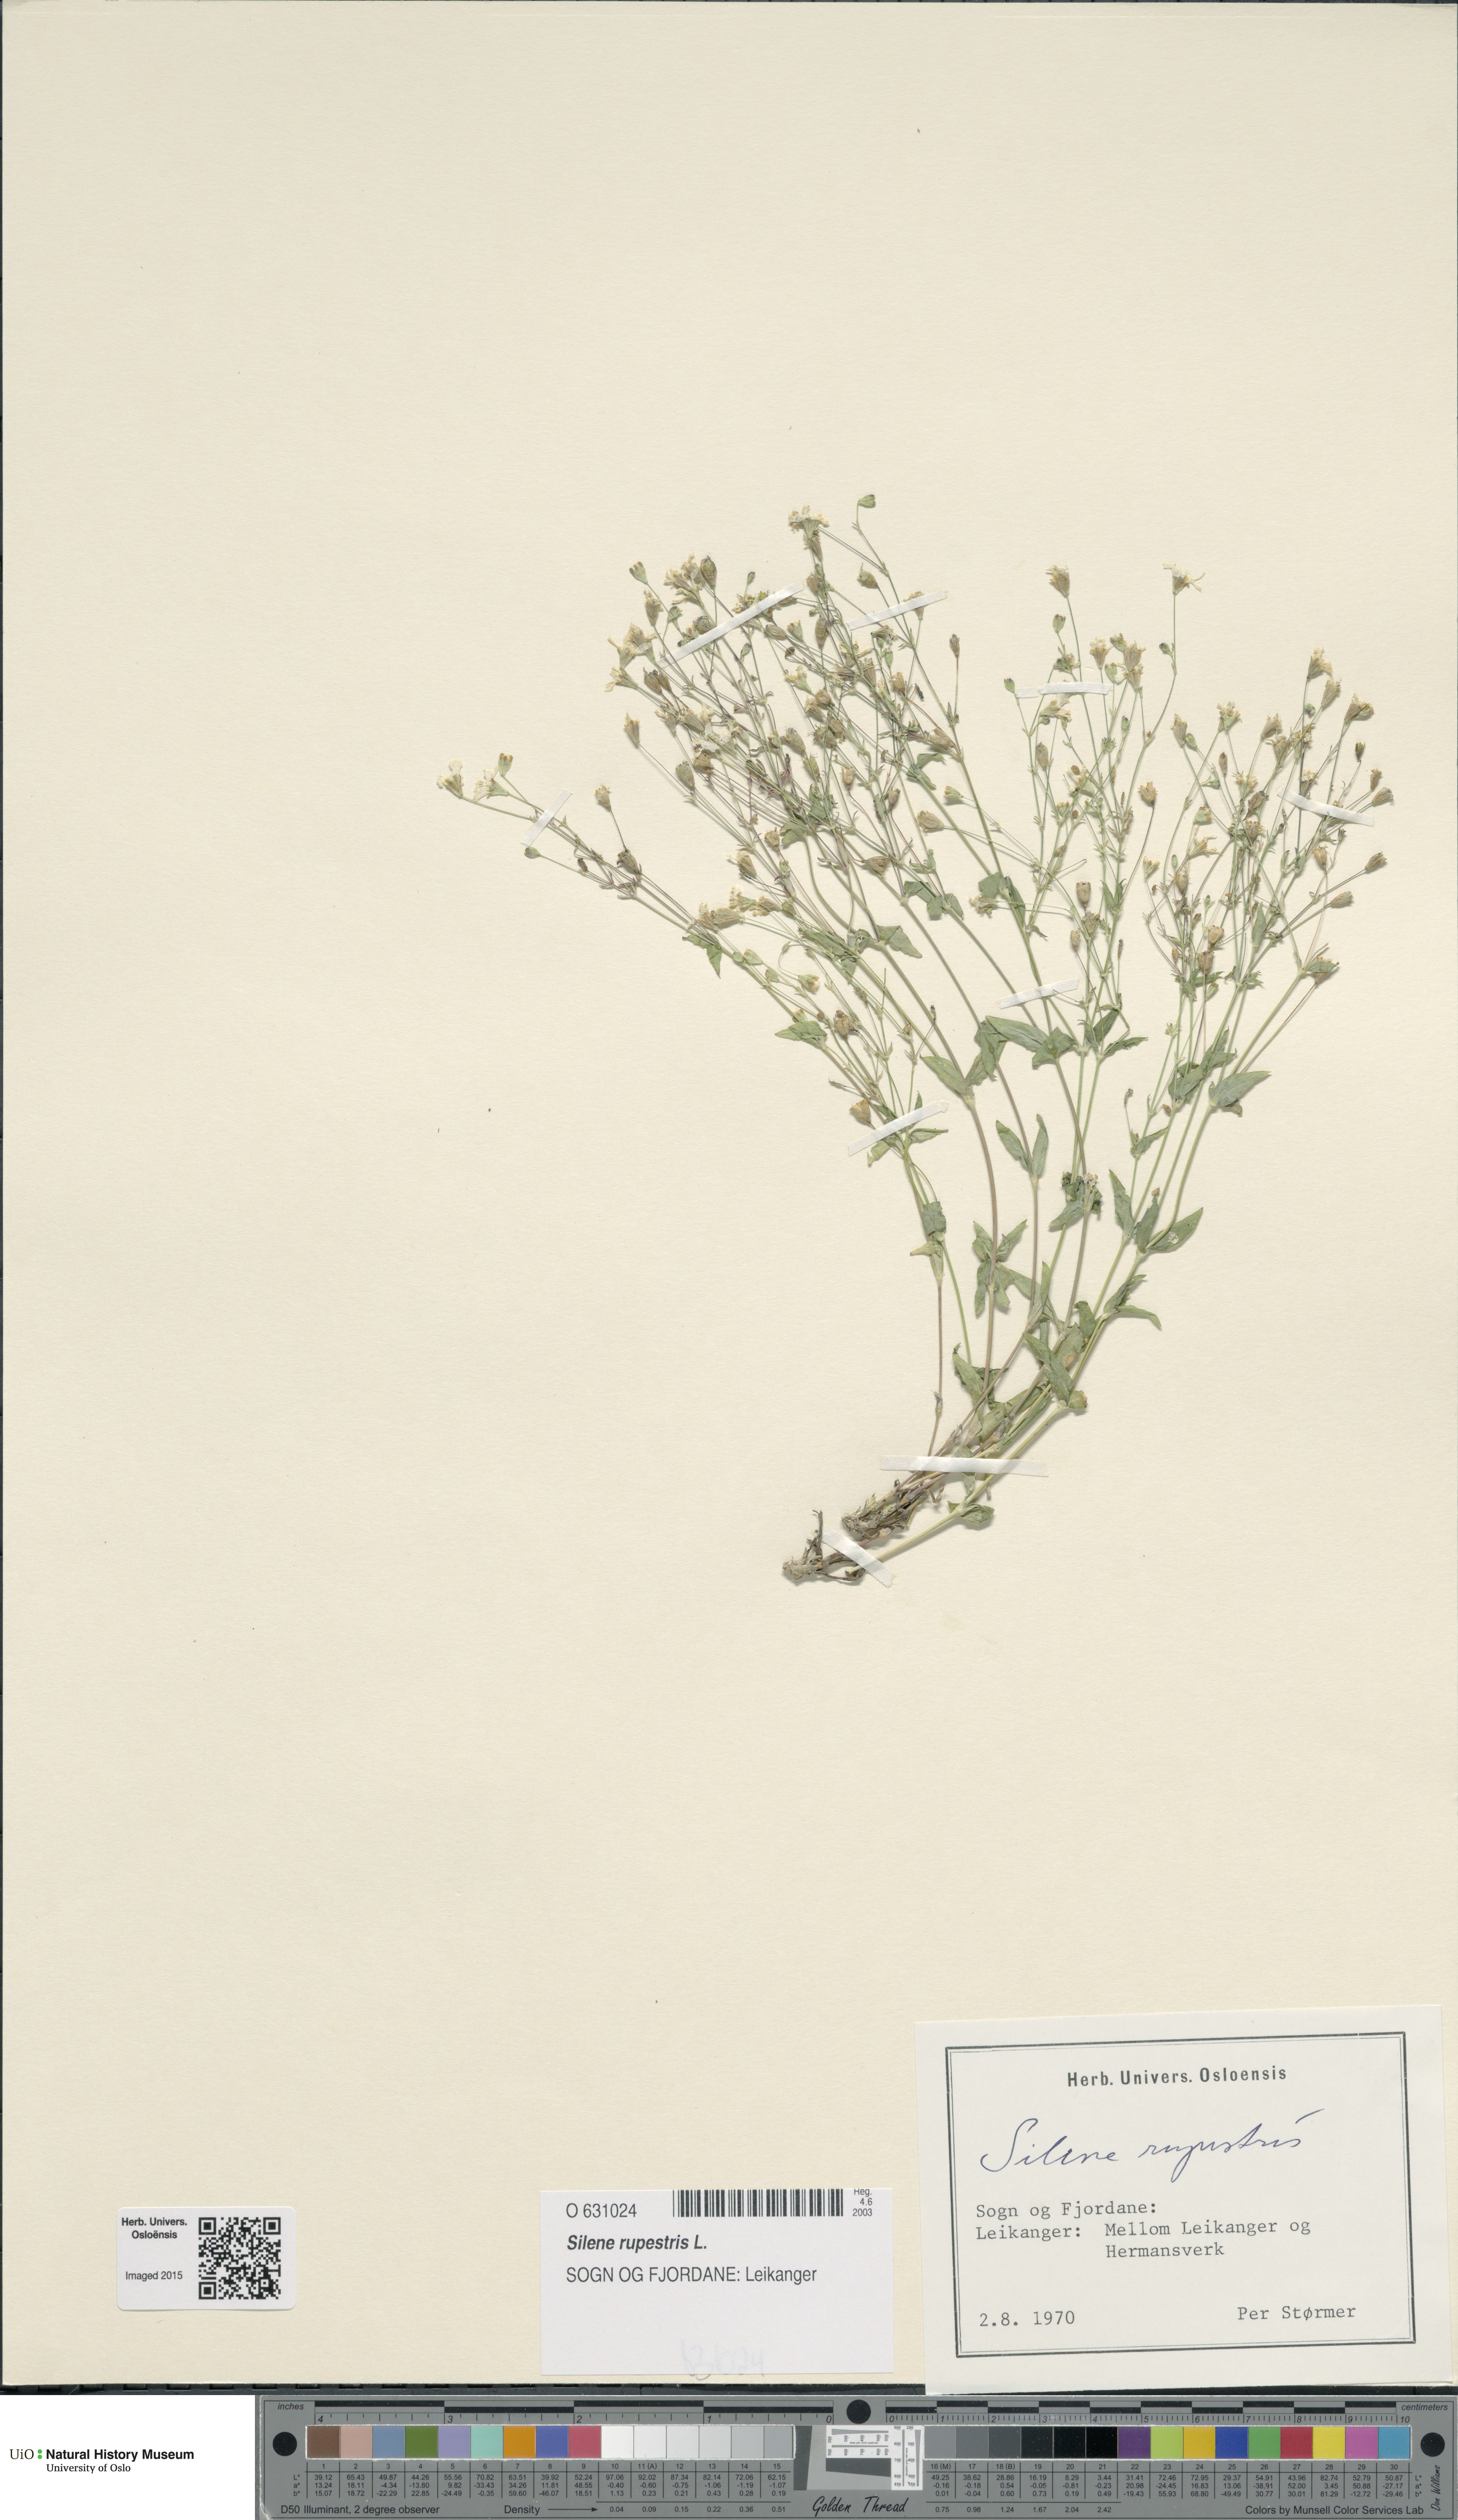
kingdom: Plantae
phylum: Tracheophyta
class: Magnoliopsida
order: Caryophyllales
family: Caryophyllaceae
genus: Atocion
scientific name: Atocion rupestre
